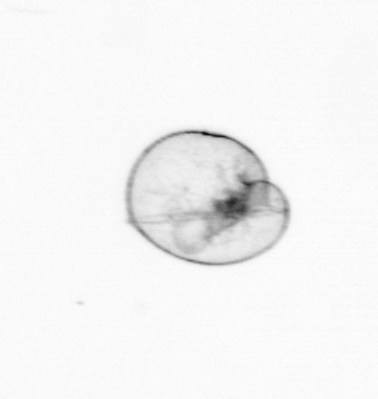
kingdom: Chromista
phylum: Myzozoa
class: Dinophyceae
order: Noctilucales
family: Noctilucaceae
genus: Noctiluca
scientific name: Noctiluca scintillans
